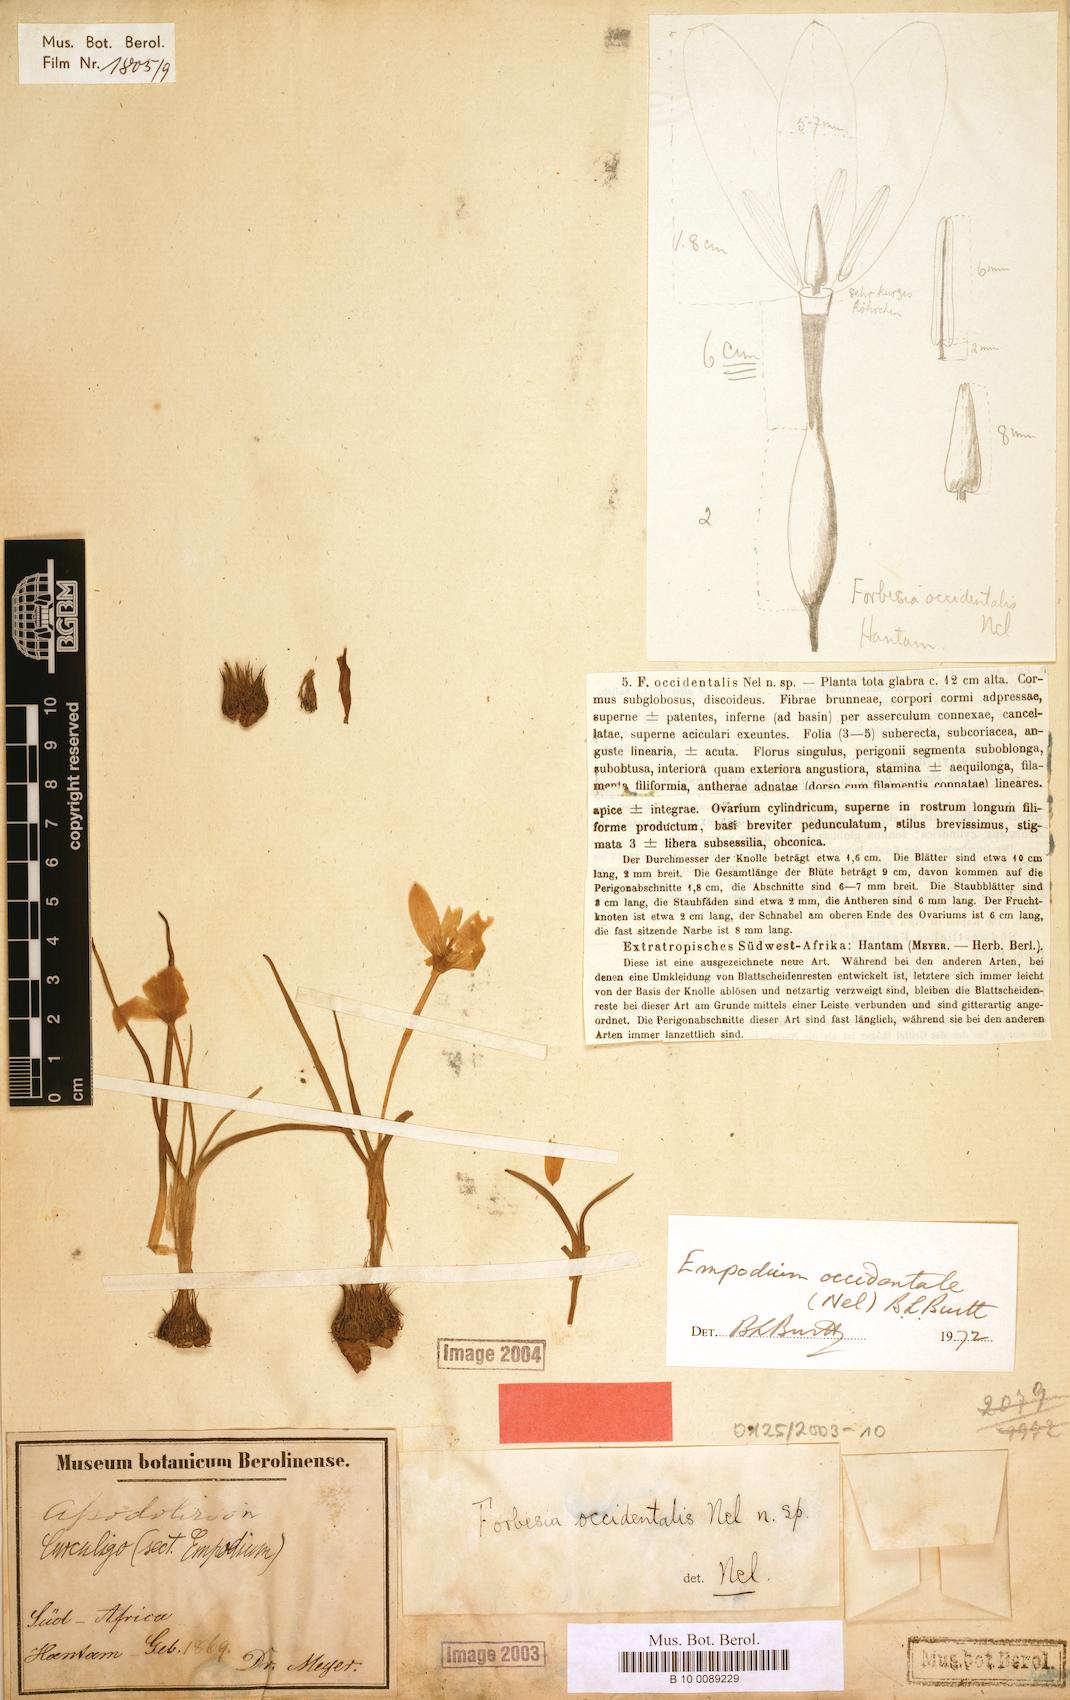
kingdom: Plantae
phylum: Tracheophyta
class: Liliopsida
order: Asparagales
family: Hypoxidaceae
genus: Pauridia
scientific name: Pauridia alticola
